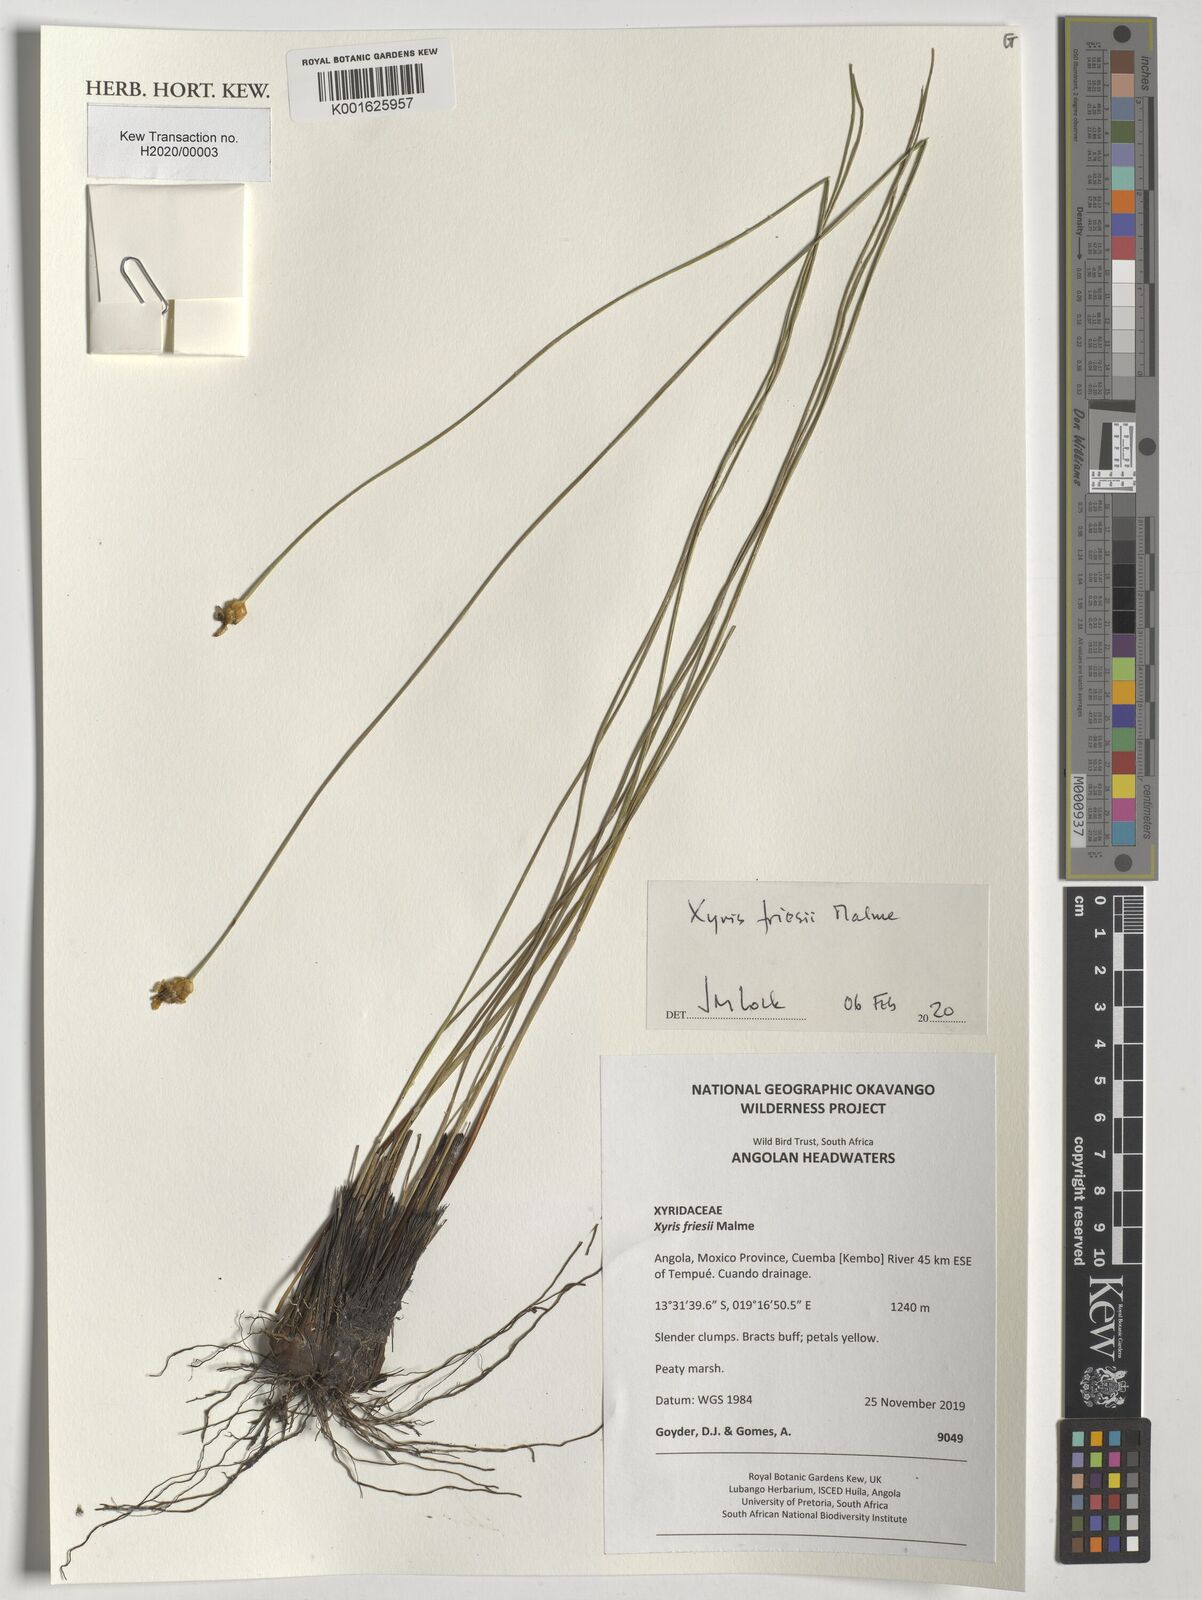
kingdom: Plantae
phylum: Tracheophyta
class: Liliopsida
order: Poales
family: Xyridaceae
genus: Xyris
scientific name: Xyris friesii
